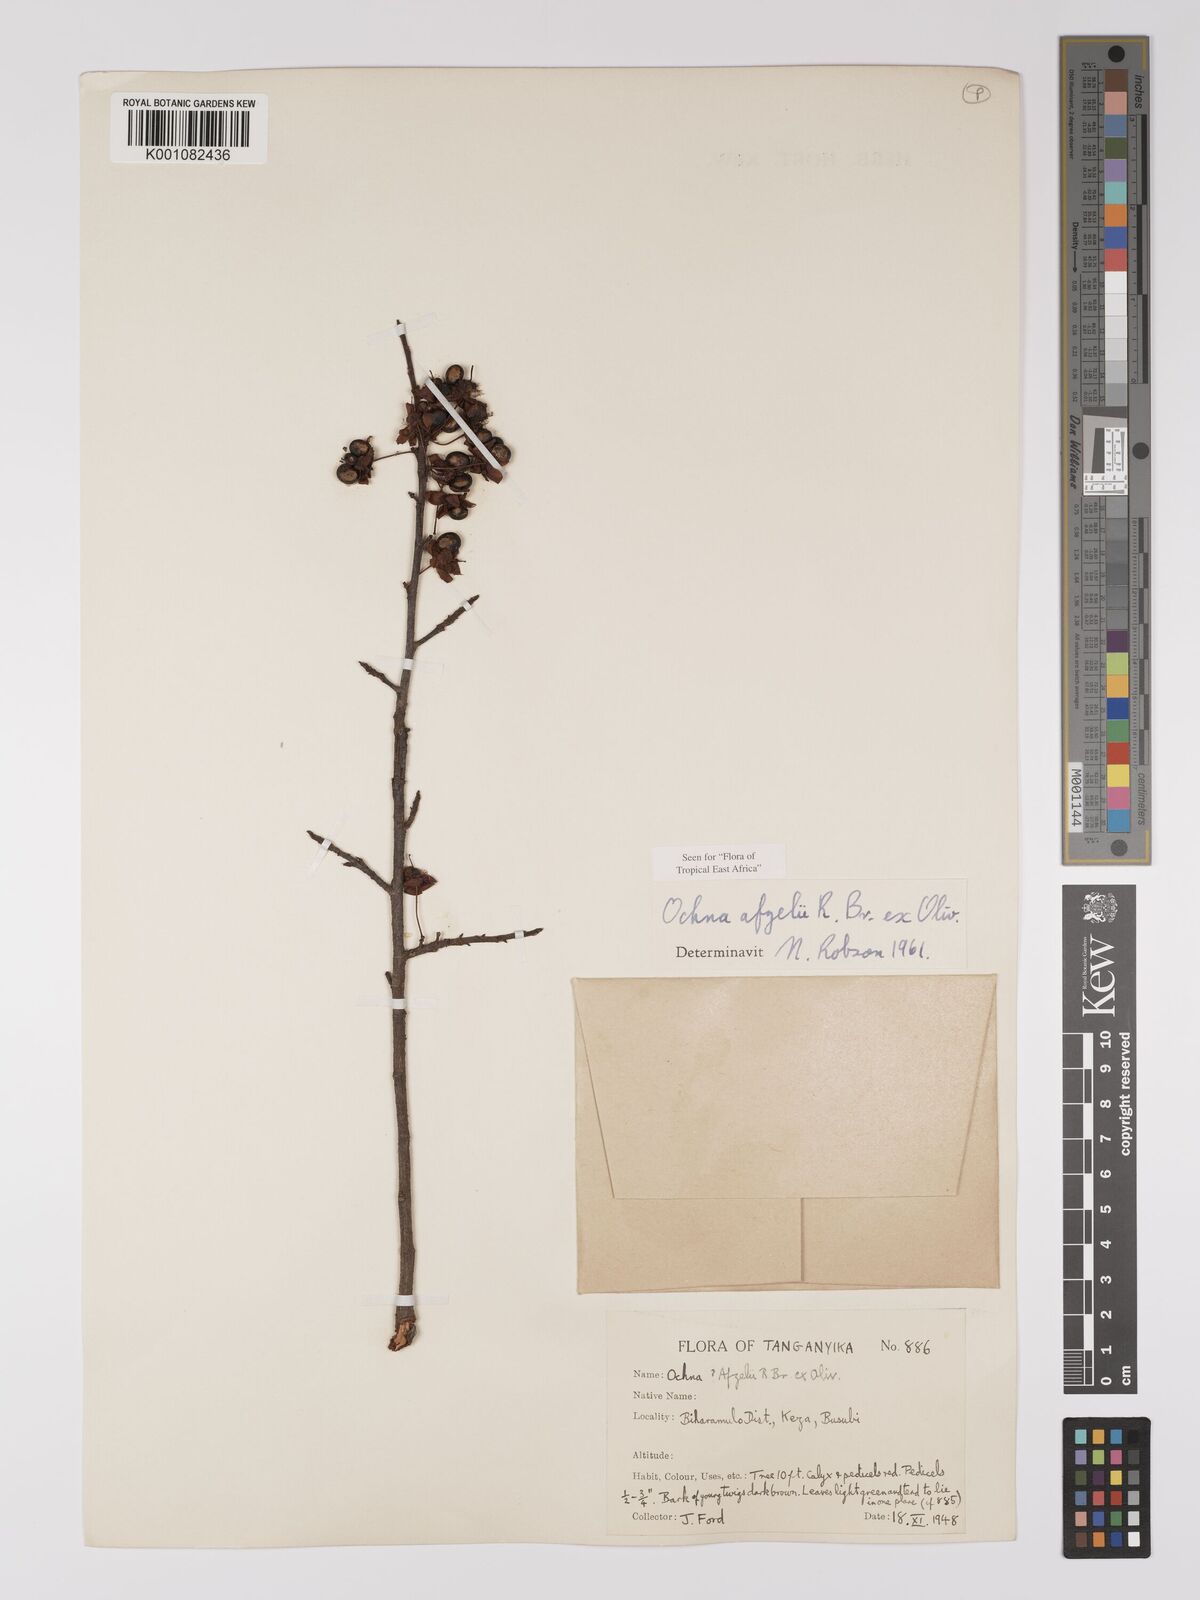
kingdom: Plantae
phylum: Tracheophyta
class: Magnoliopsida
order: Malpighiales
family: Ochnaceae
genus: Ochna
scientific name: Ochna afzelii
